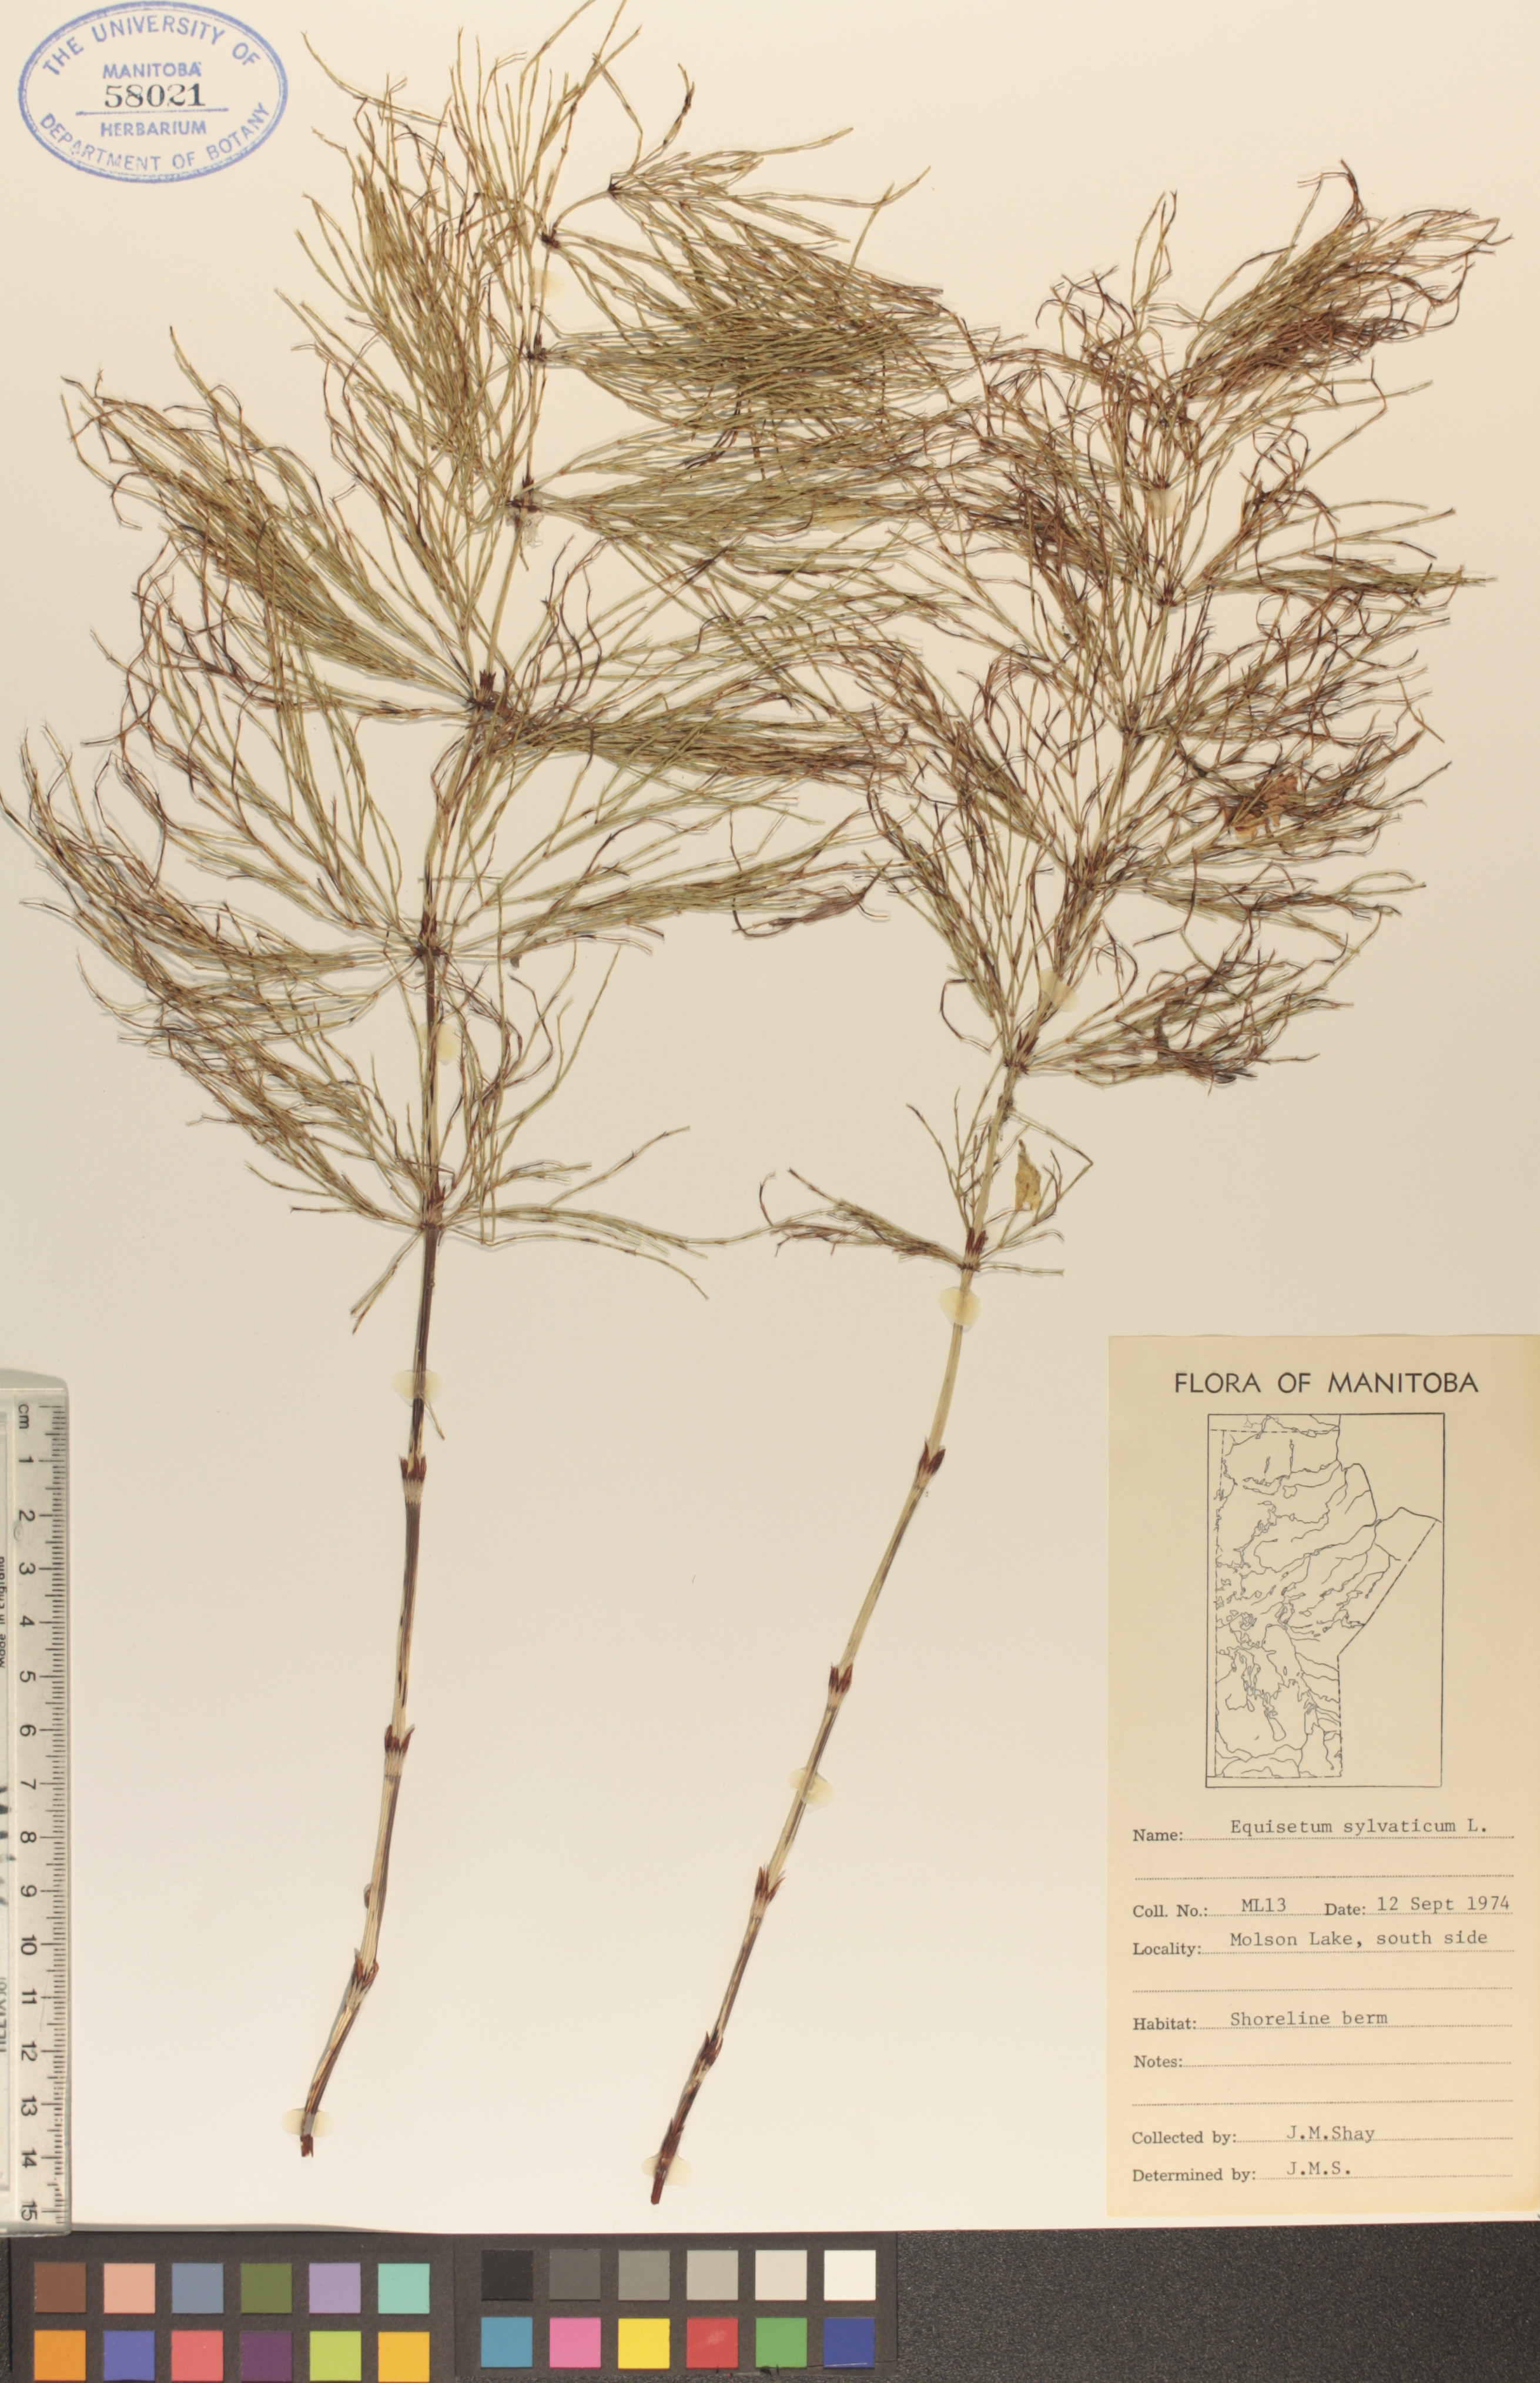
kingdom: Plantae
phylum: Tracheophyta
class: Polypodiopsida
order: Equisetales
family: Equisetaceae
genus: Equisetum
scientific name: Equisetum sylvaticum
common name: Wood horsetail
